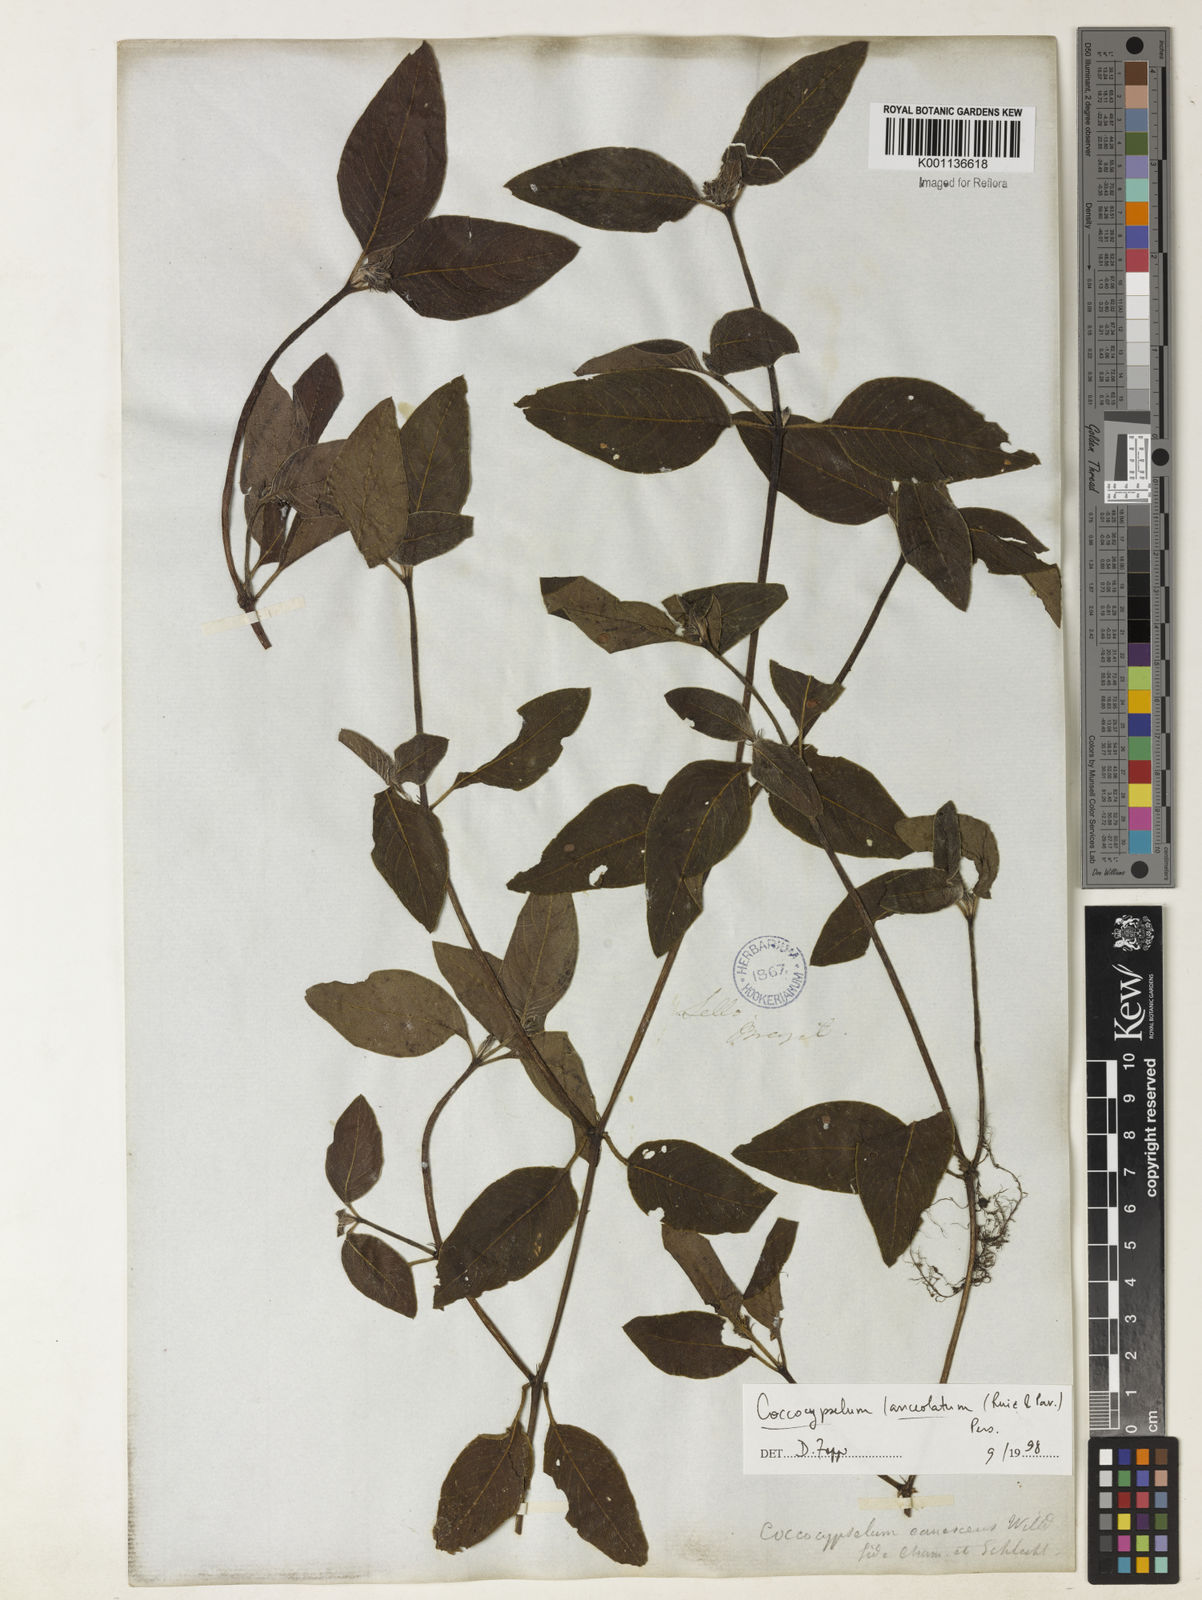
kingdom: Plantae
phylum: Tracheophyta
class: Magnoliopsida
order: Gentianales
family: Rubiaceae
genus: Coccocypselum
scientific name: Coccocypselum lanceolatum
